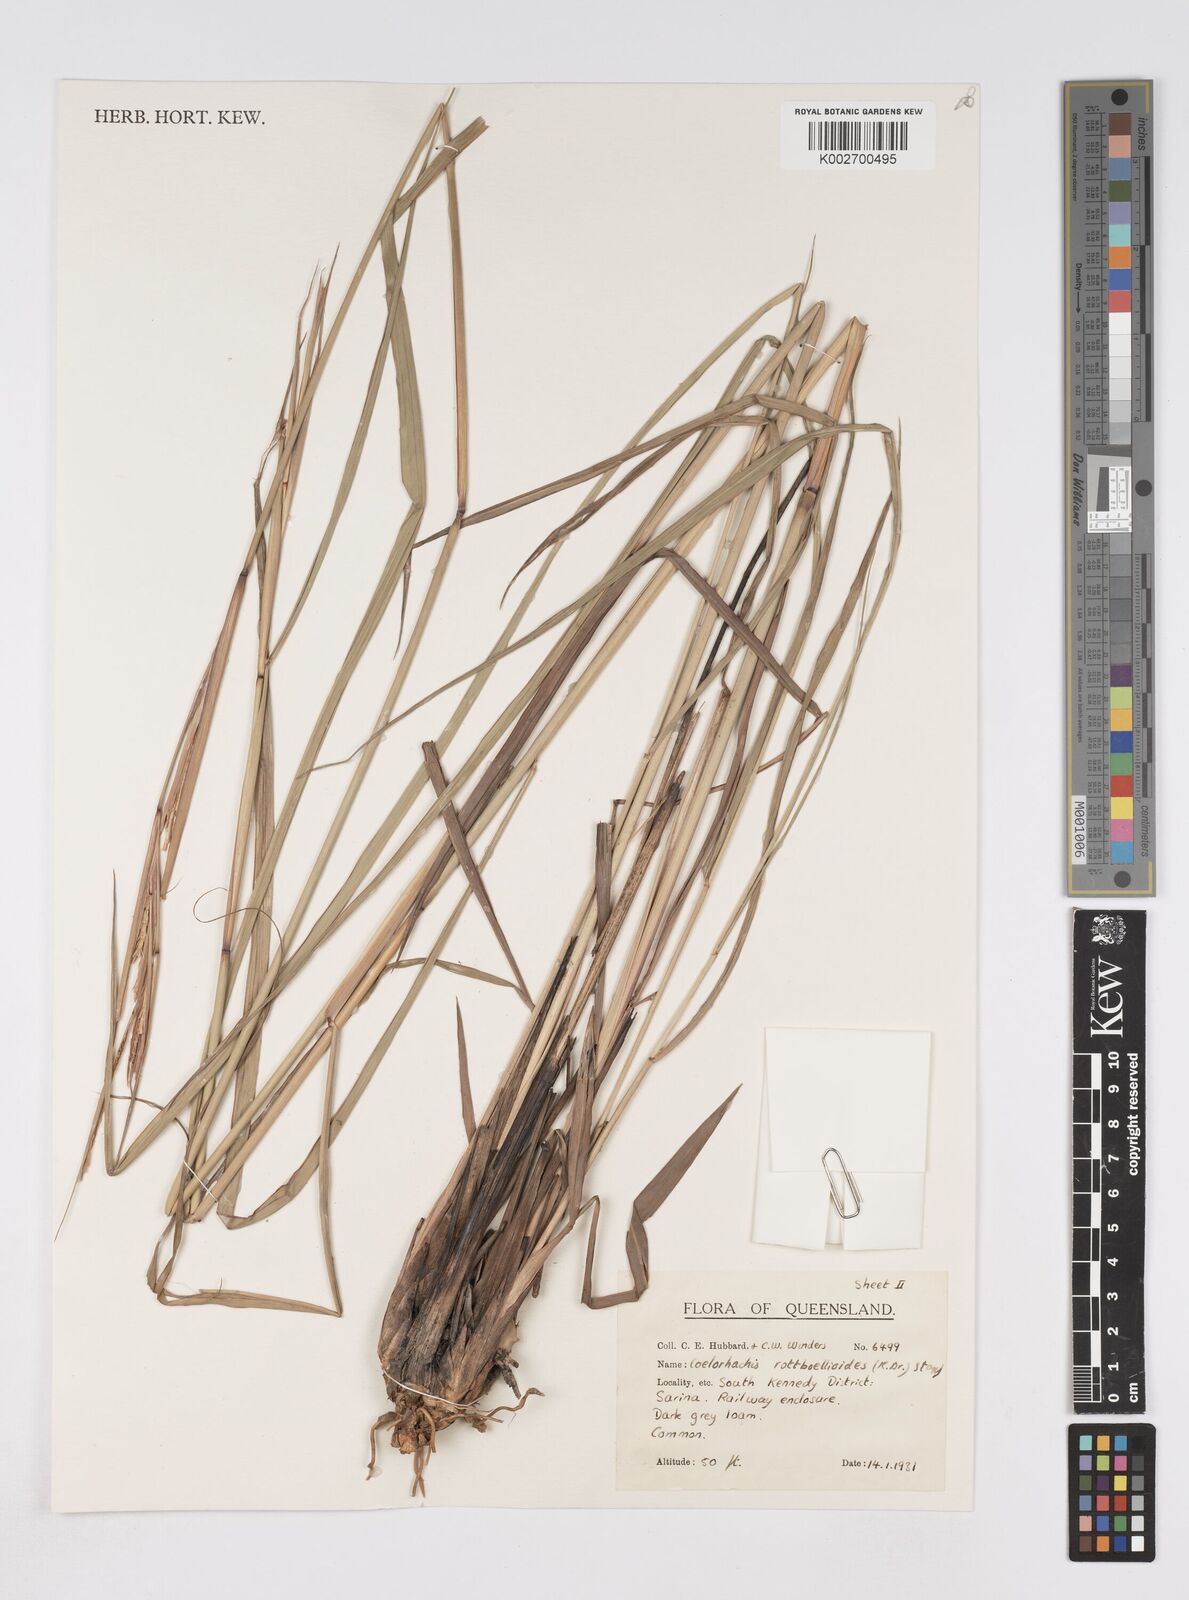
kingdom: Plantae
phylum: Tracheophyta
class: Liliopsida
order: Poales
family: Poaceae
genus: Rottboellia
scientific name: Rottboellia rottboellioides
